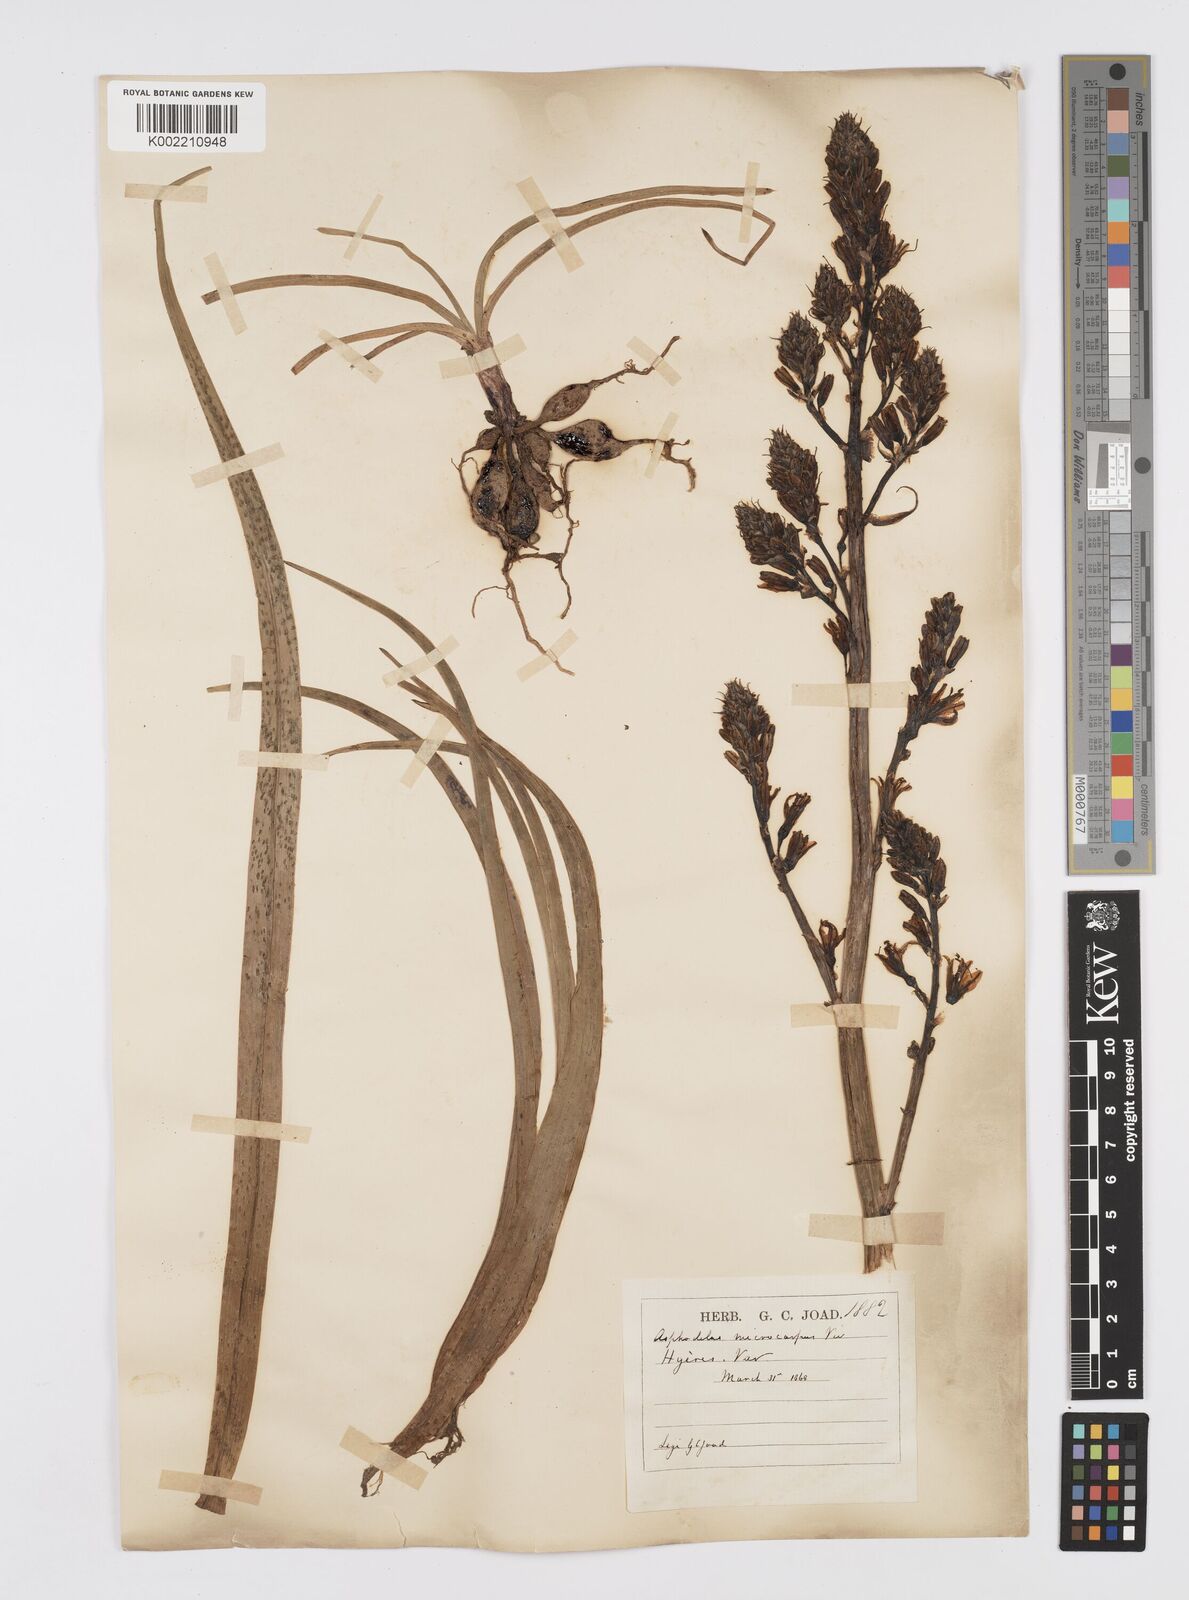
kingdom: Plantae
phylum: Tracheophyta
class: Liliopsida
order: Asparagales
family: Asphodelaceae
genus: Asphodelus
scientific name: Asphodelus aestivus
